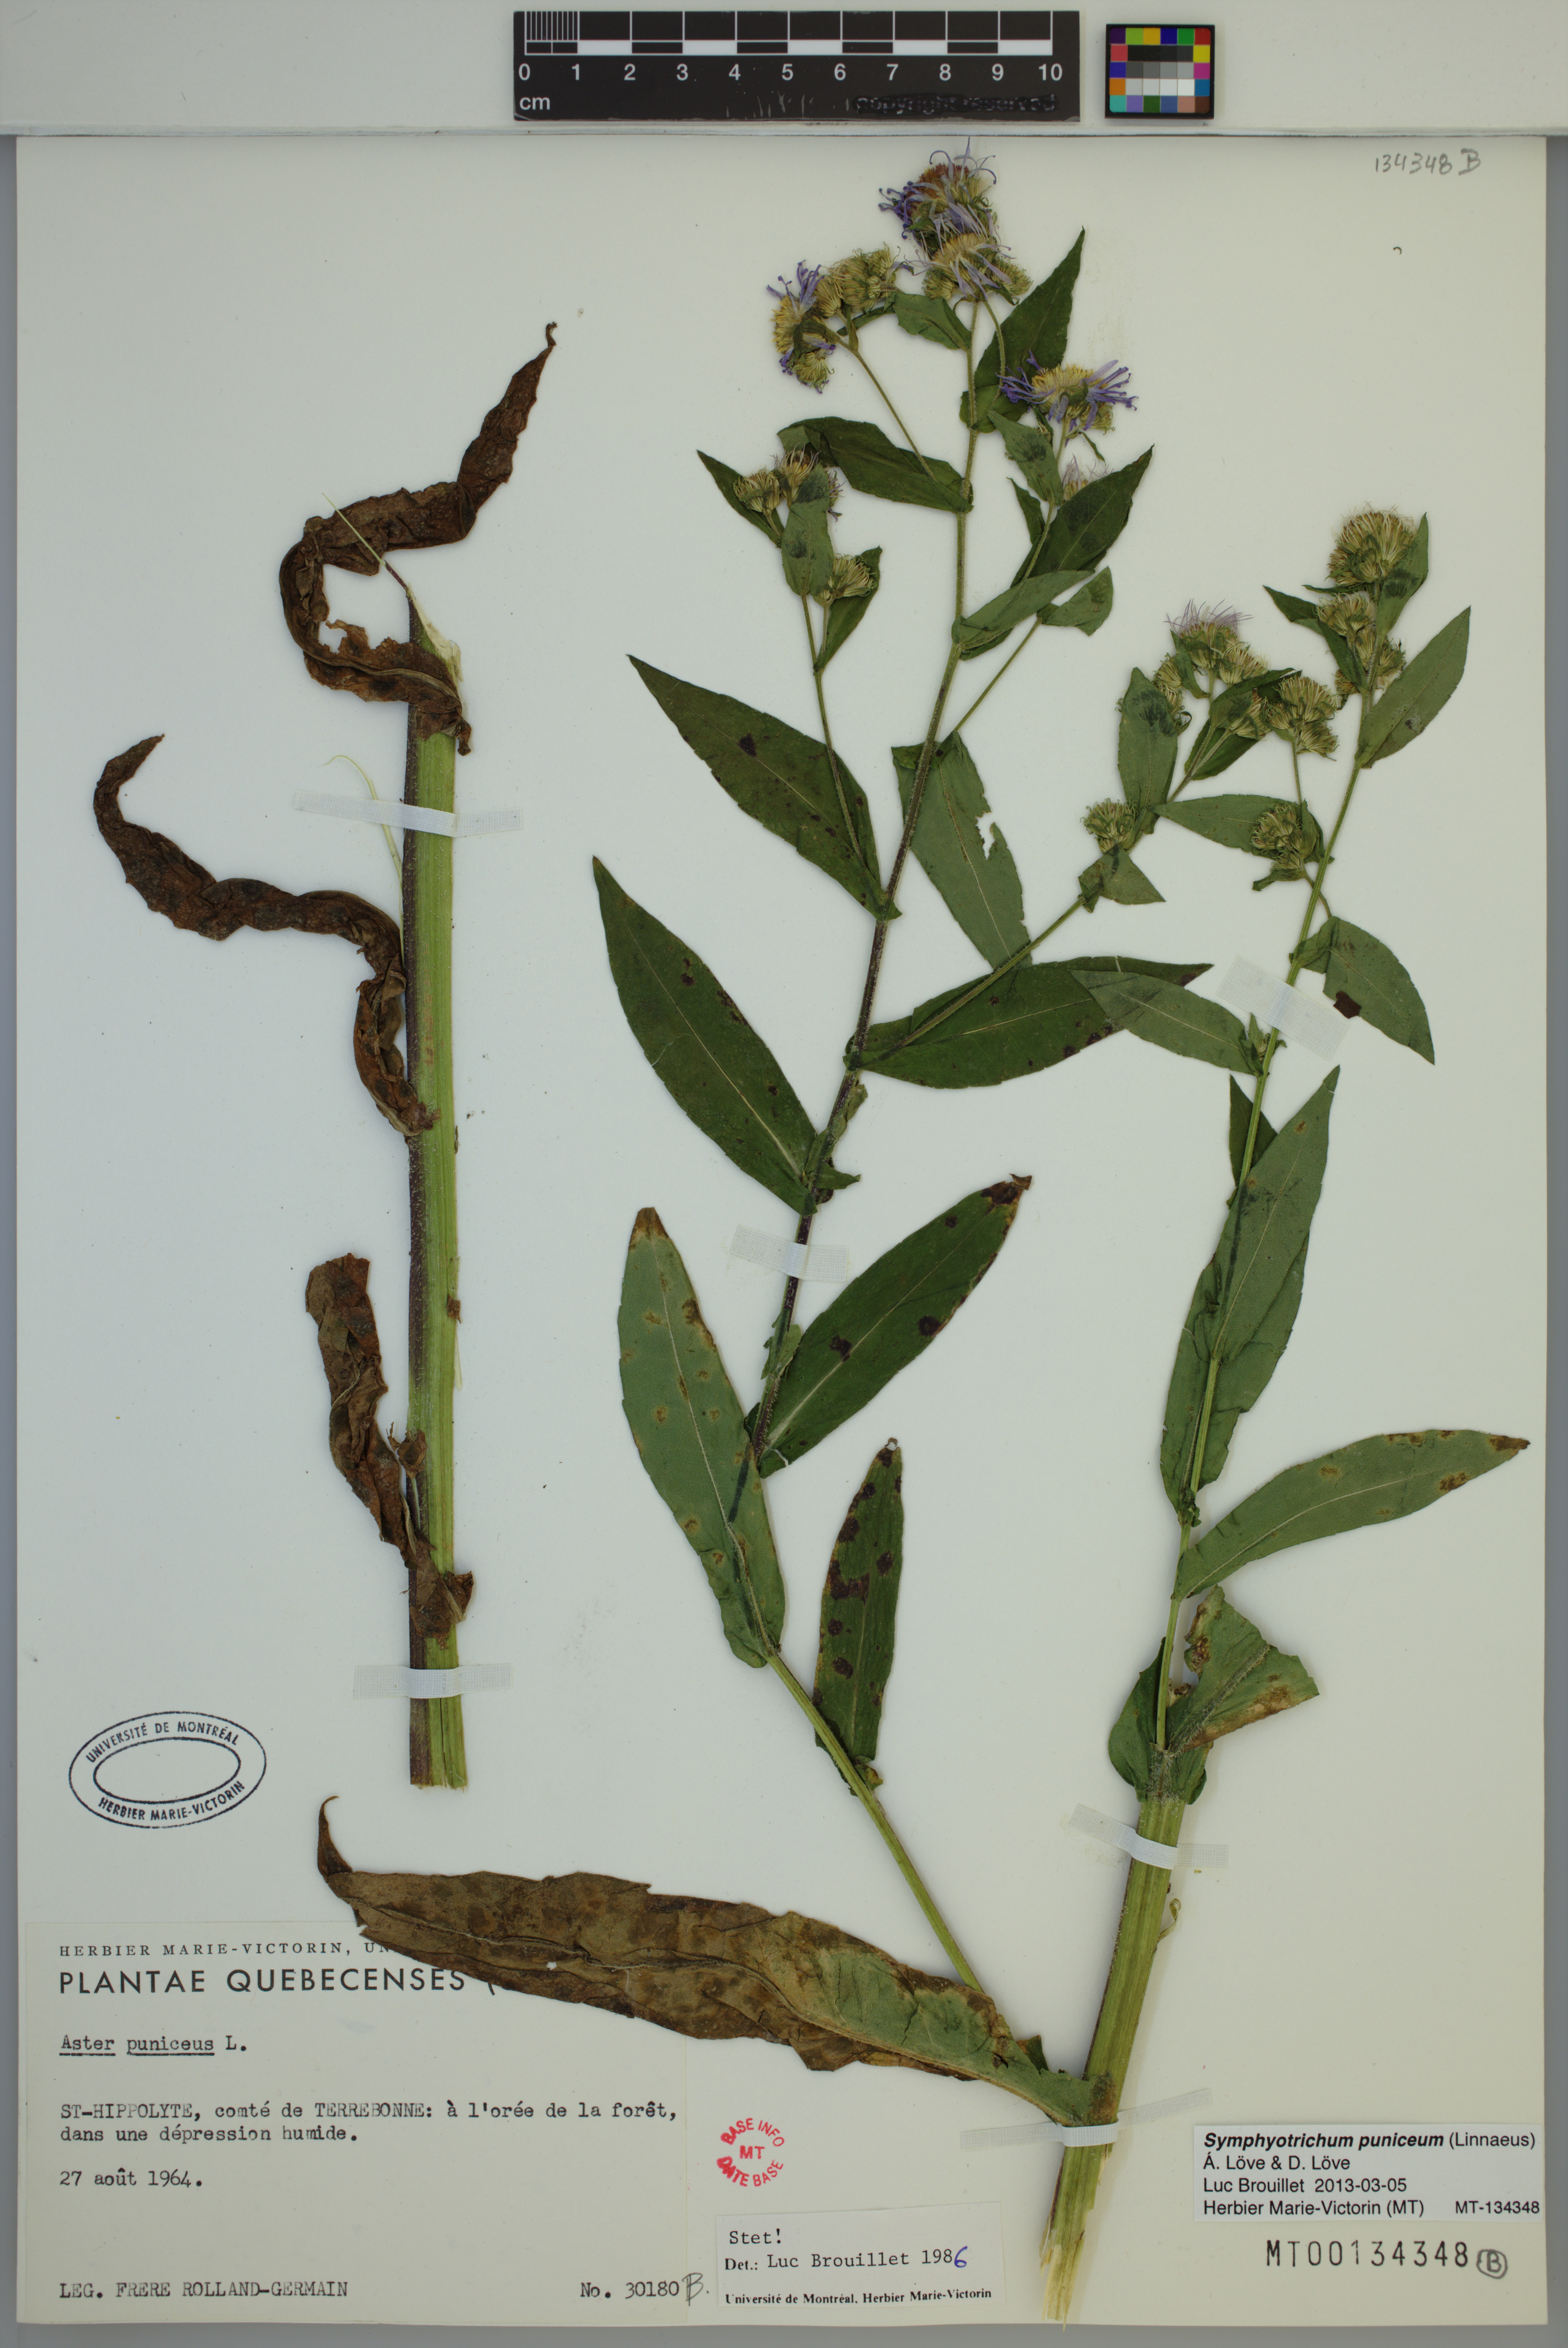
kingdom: Plantae
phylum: Tracheophyta
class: Magnoliopsida
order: Asterales
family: Asteraceae
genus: Symphyotrichum
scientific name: Symphyotrichum puniceum
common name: Bog aster
